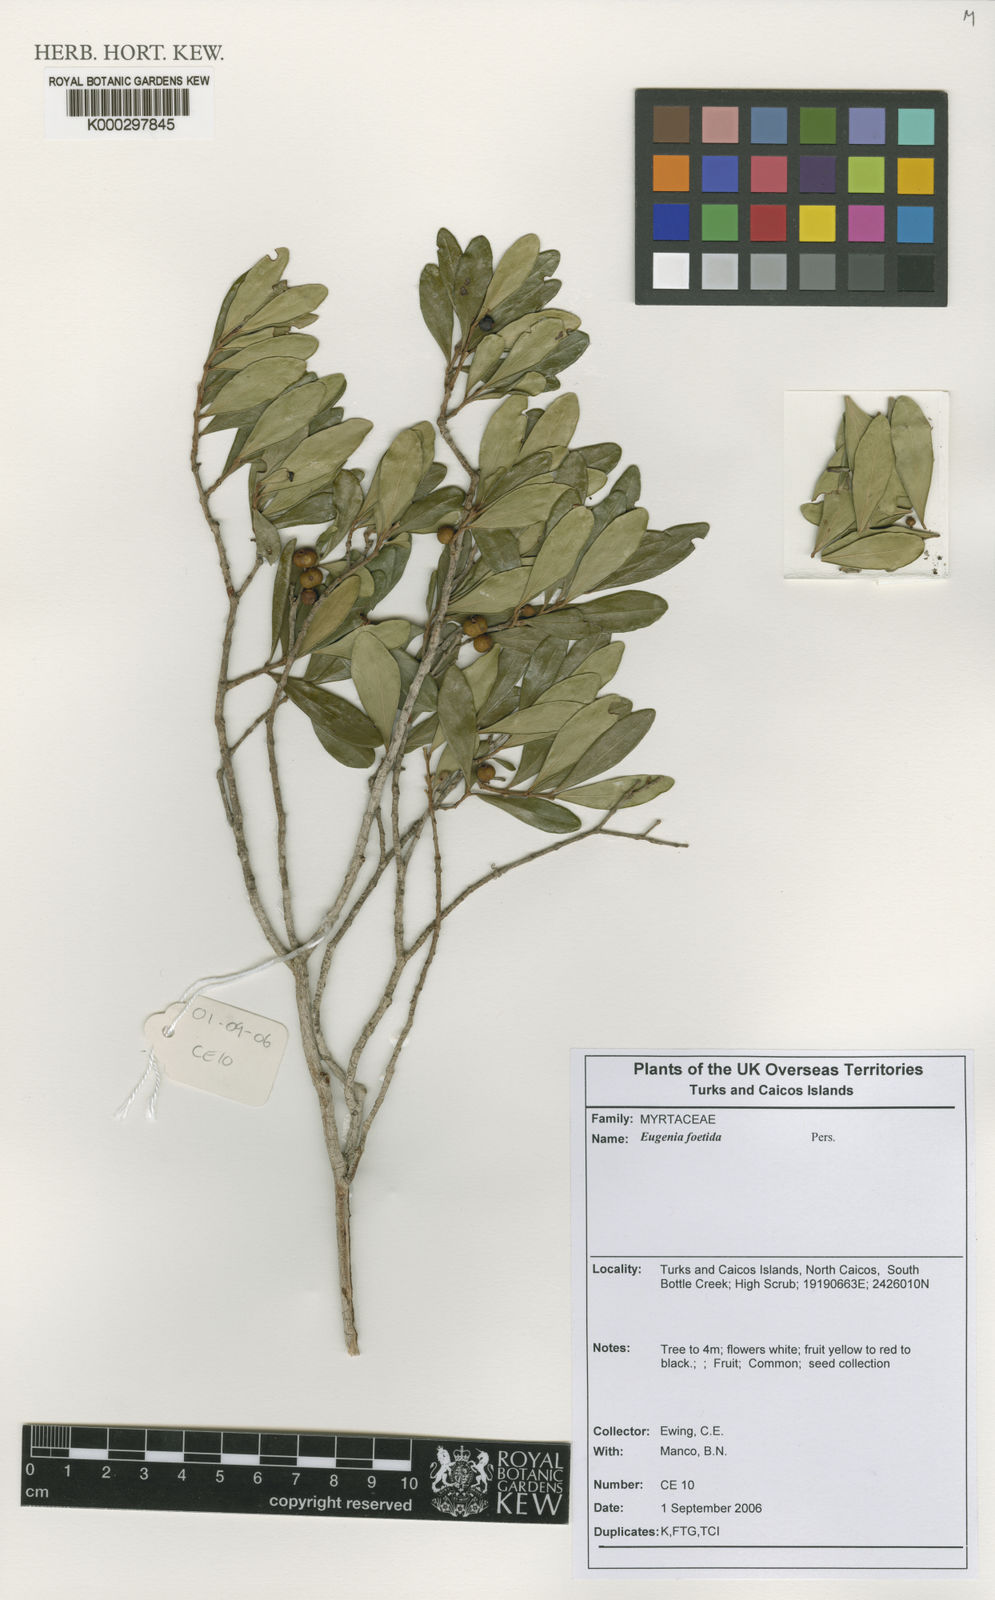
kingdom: Plantae
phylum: Tracheophyta
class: Magnoliopsida
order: Myrtales
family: Myrtaceae
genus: Eugenia
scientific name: Eugenia foetida
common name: White wattling
